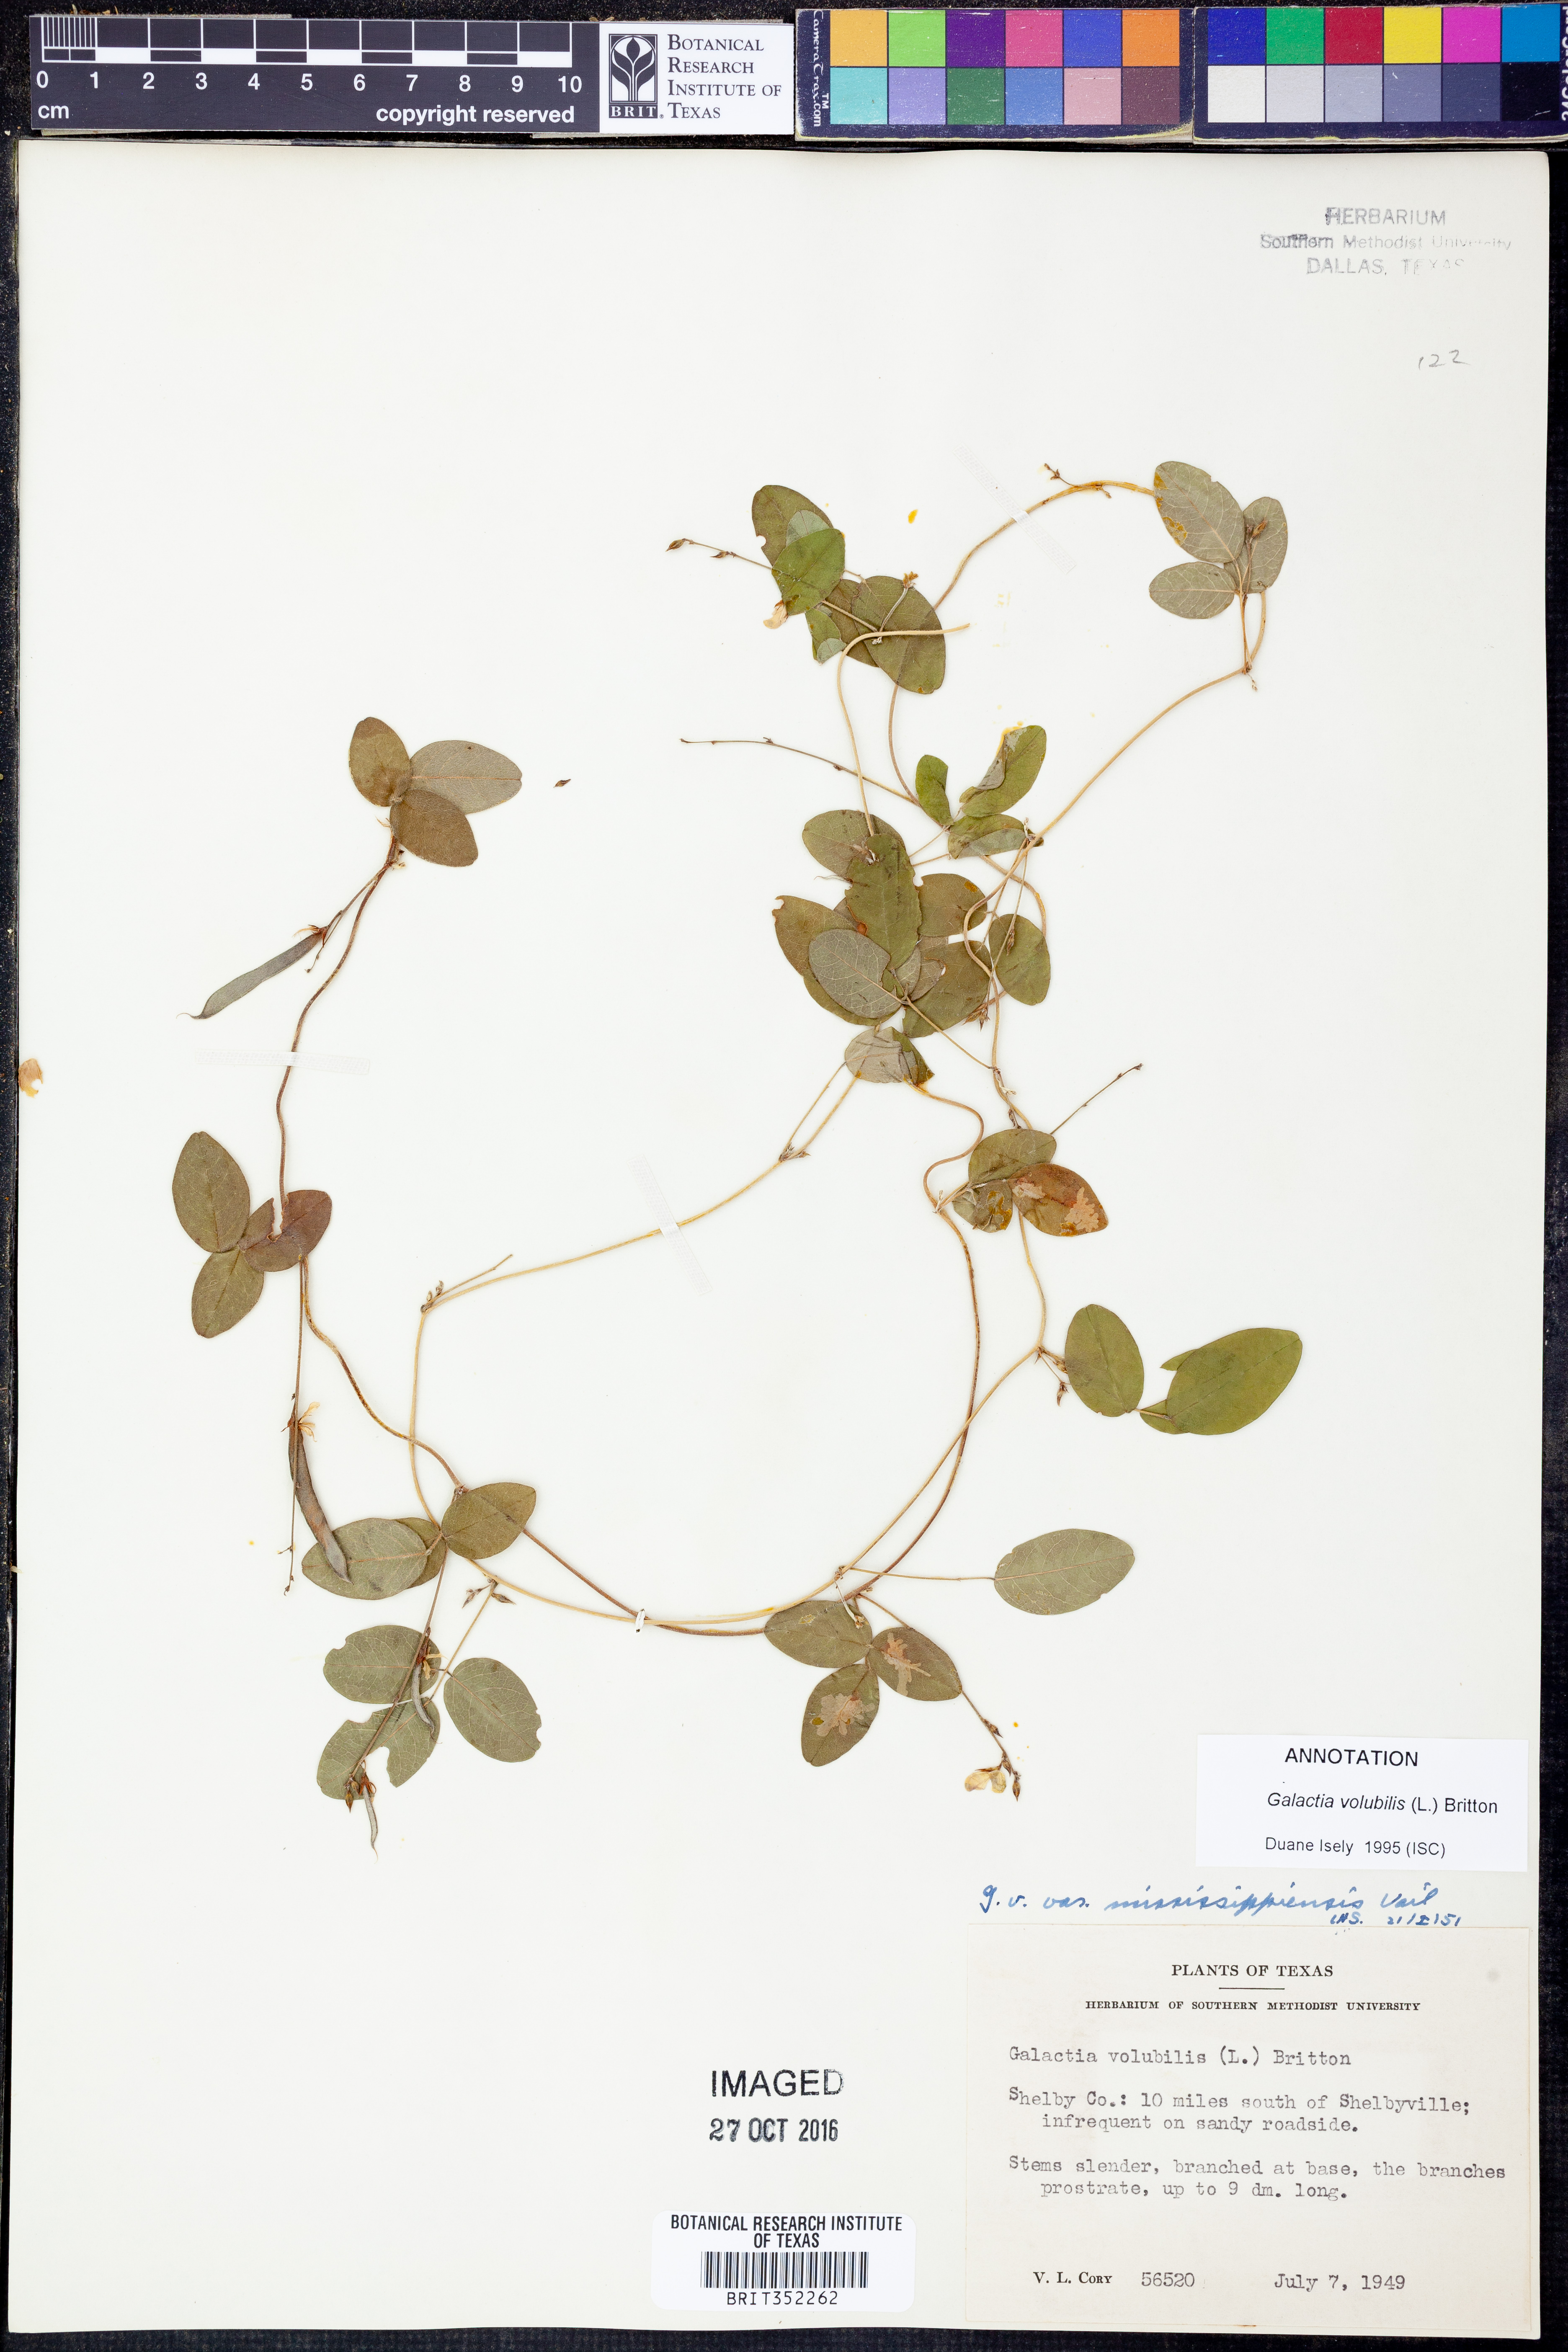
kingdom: Plantae
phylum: Tracheophyta
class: Magnoliopsida
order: Fabales
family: Fabaceae
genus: Galactia
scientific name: Galactia volubilis
